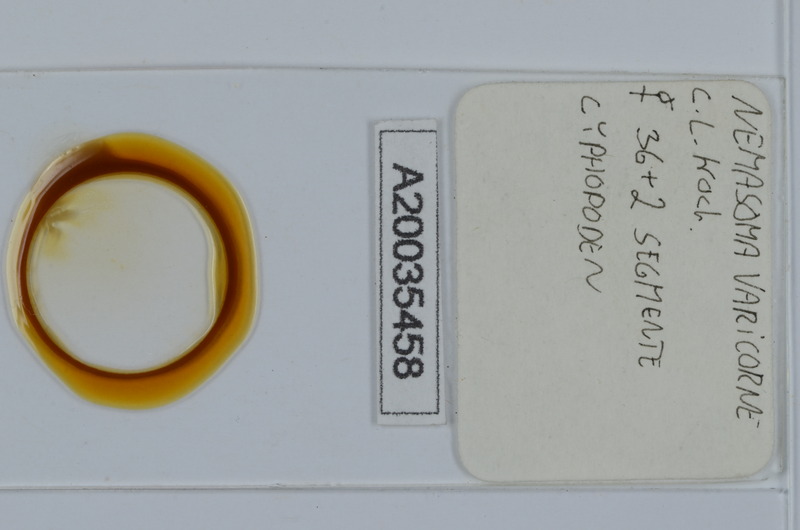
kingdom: Animalia
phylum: Arthropoda
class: Diplopoda
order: Julida
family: Nemasomatidae
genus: Nemasoma
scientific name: Nemasoma varicorne
